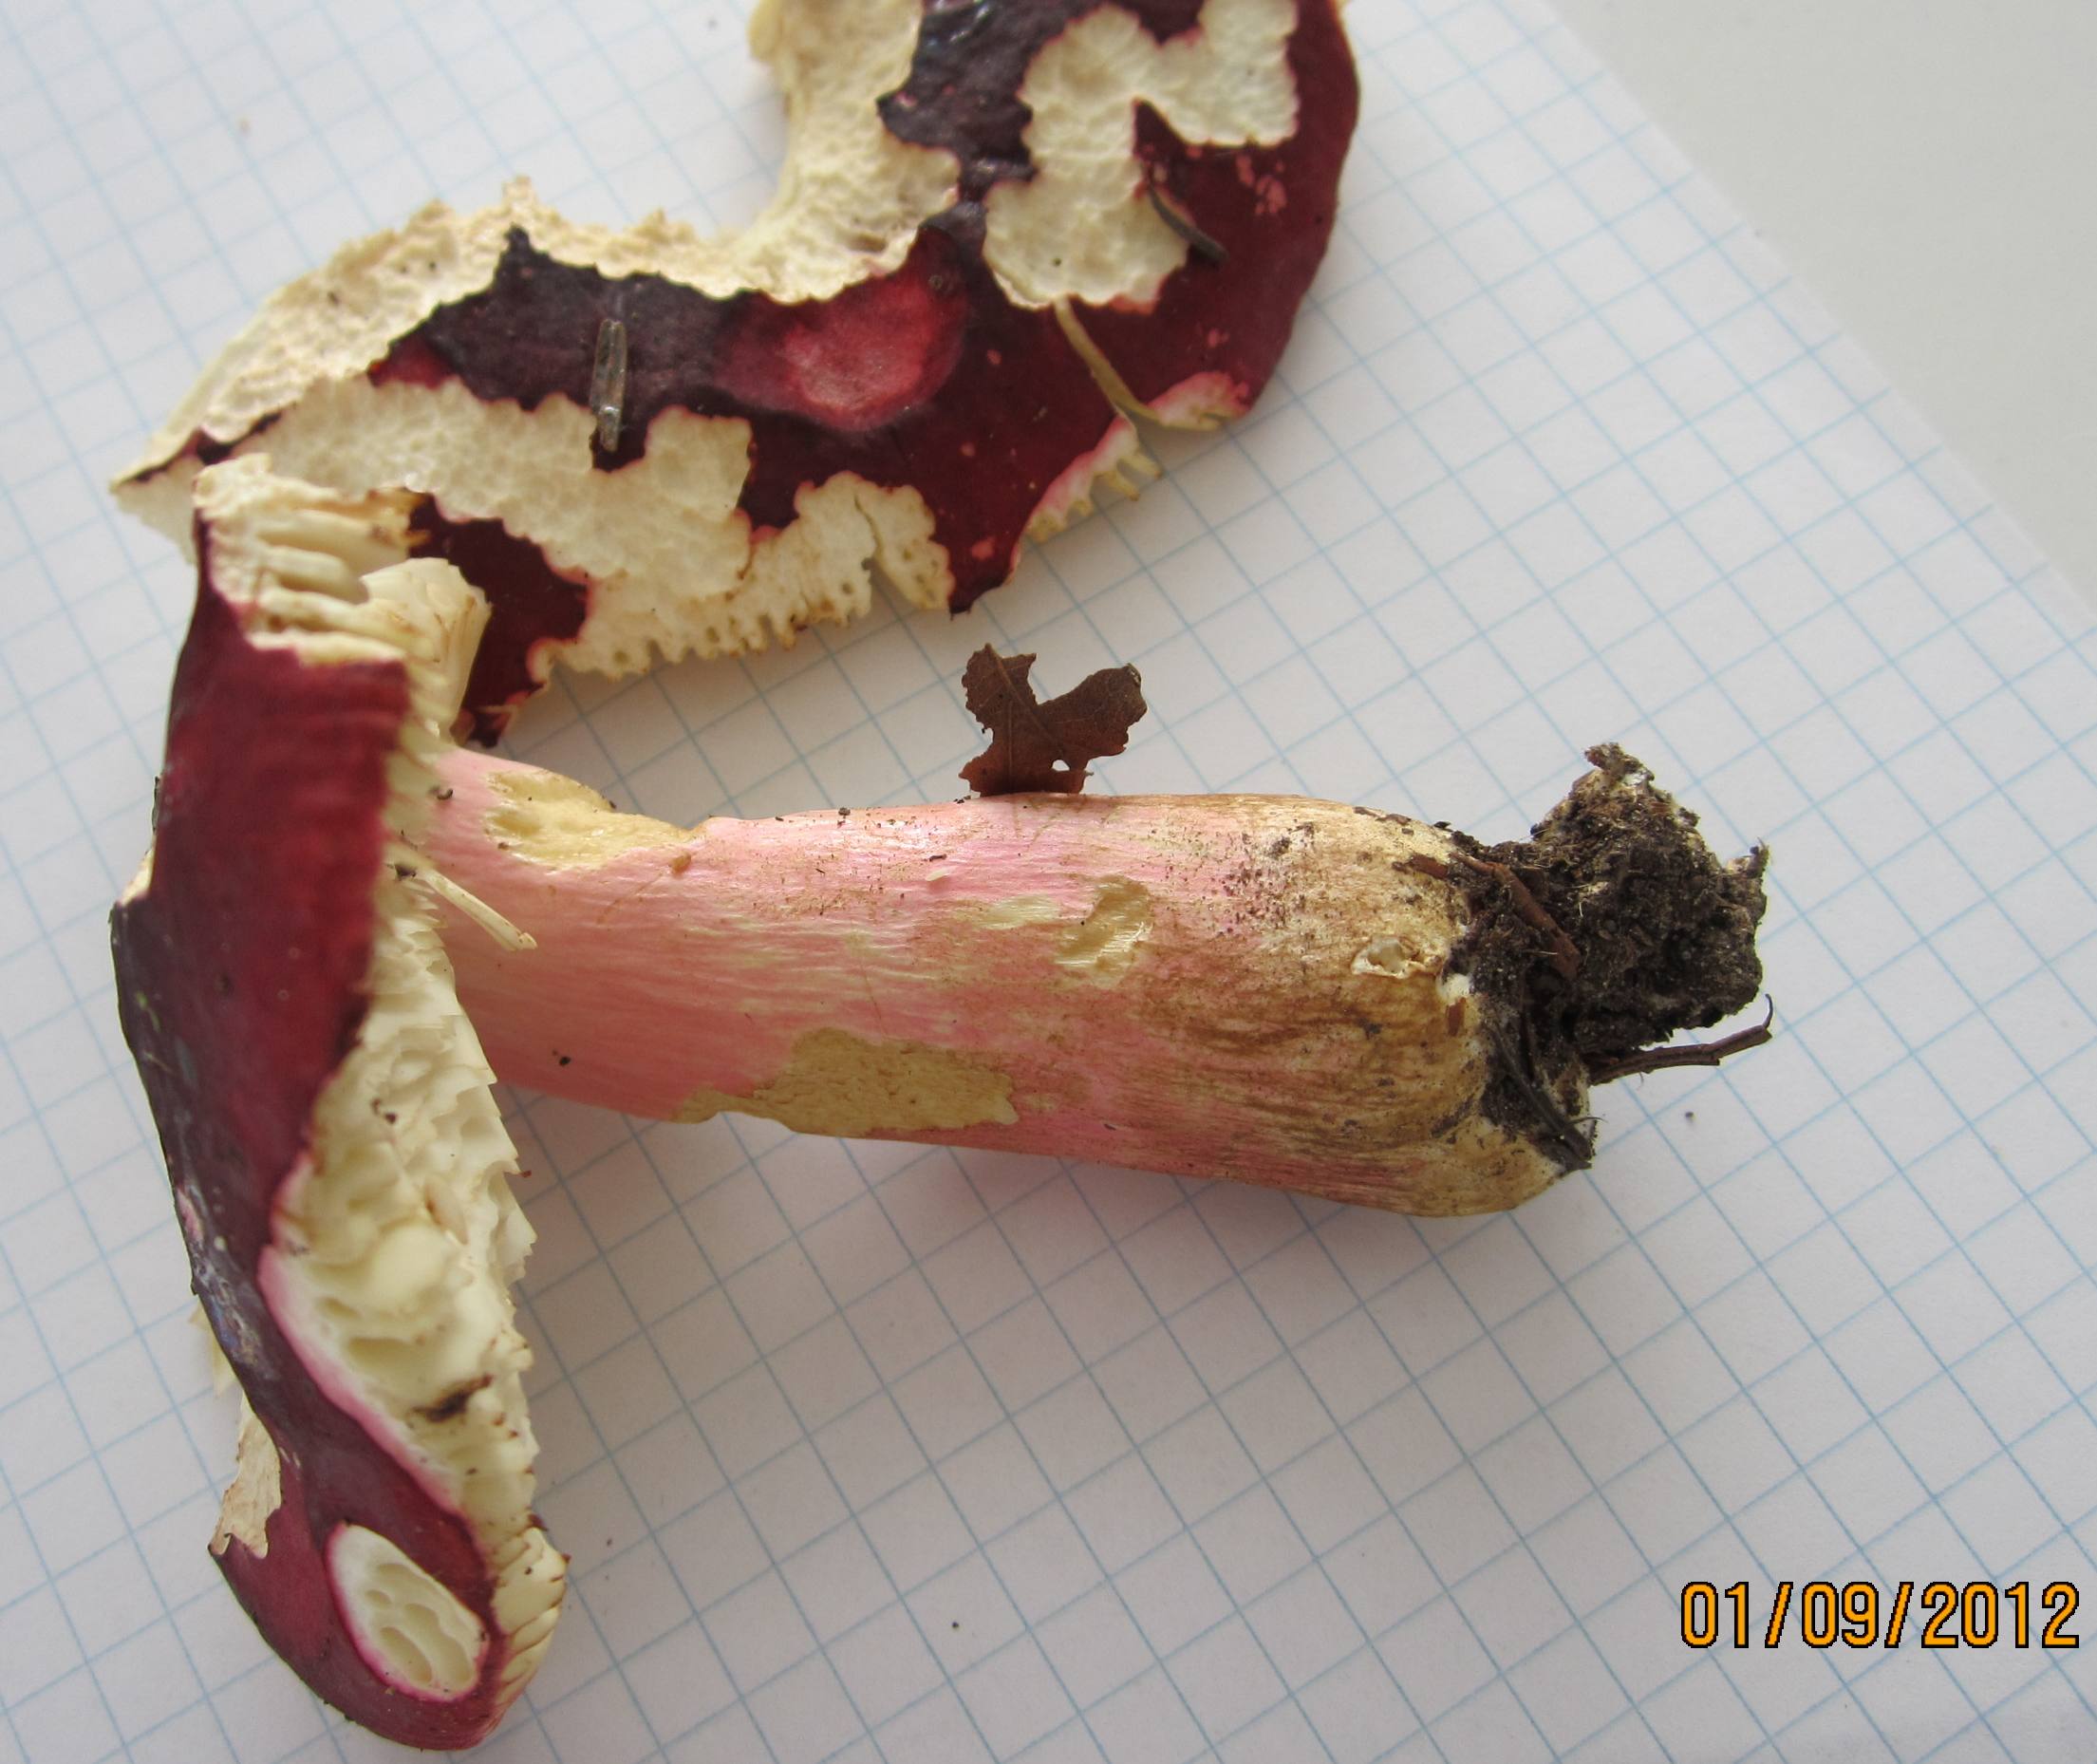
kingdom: Fungi
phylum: Basidiomycota
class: Agaricomycetes
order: Russulales
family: Russulaceae
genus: Russula
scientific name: Russula xerampelina
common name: hummer-skørhat
